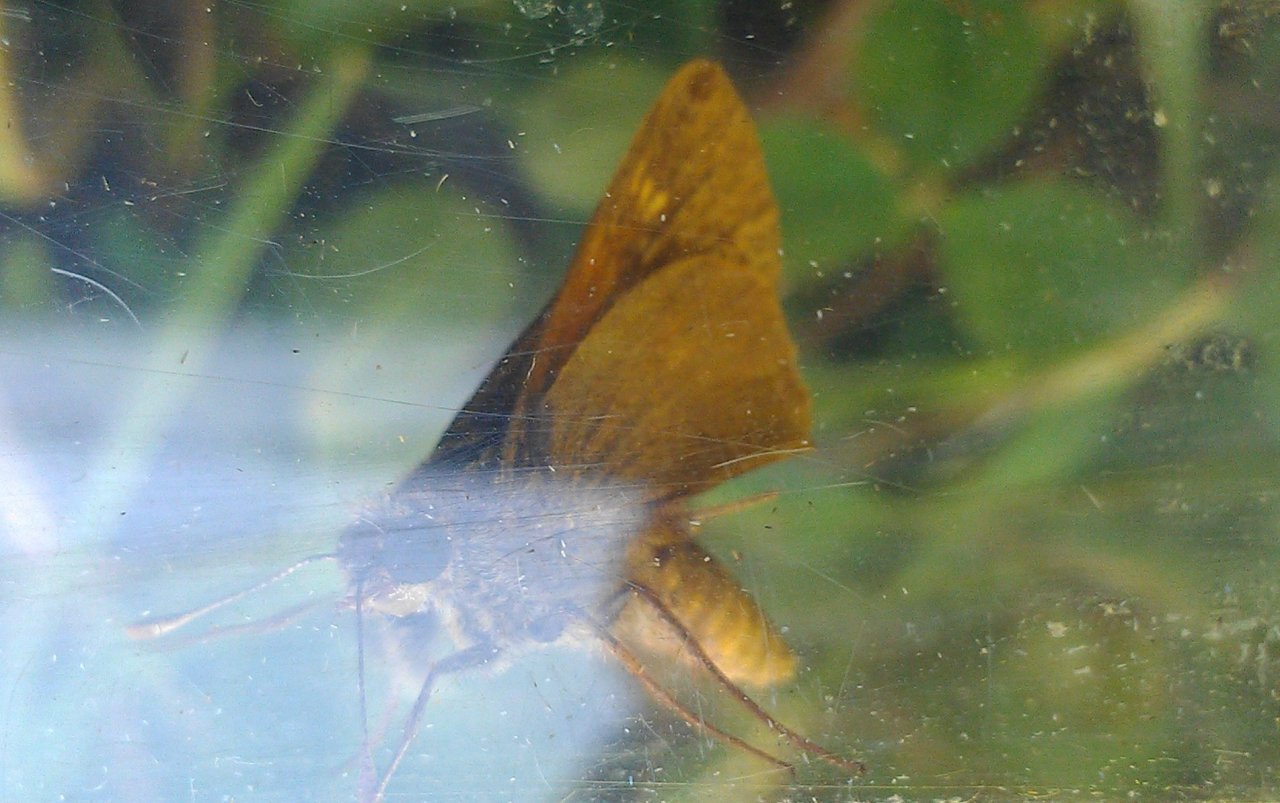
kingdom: Animalia
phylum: Arthropoda
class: Insecta
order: Lepidoptera
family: Hesperiidae
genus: Polites
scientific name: Polites themistocles
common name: Tawny-edged Skipper
